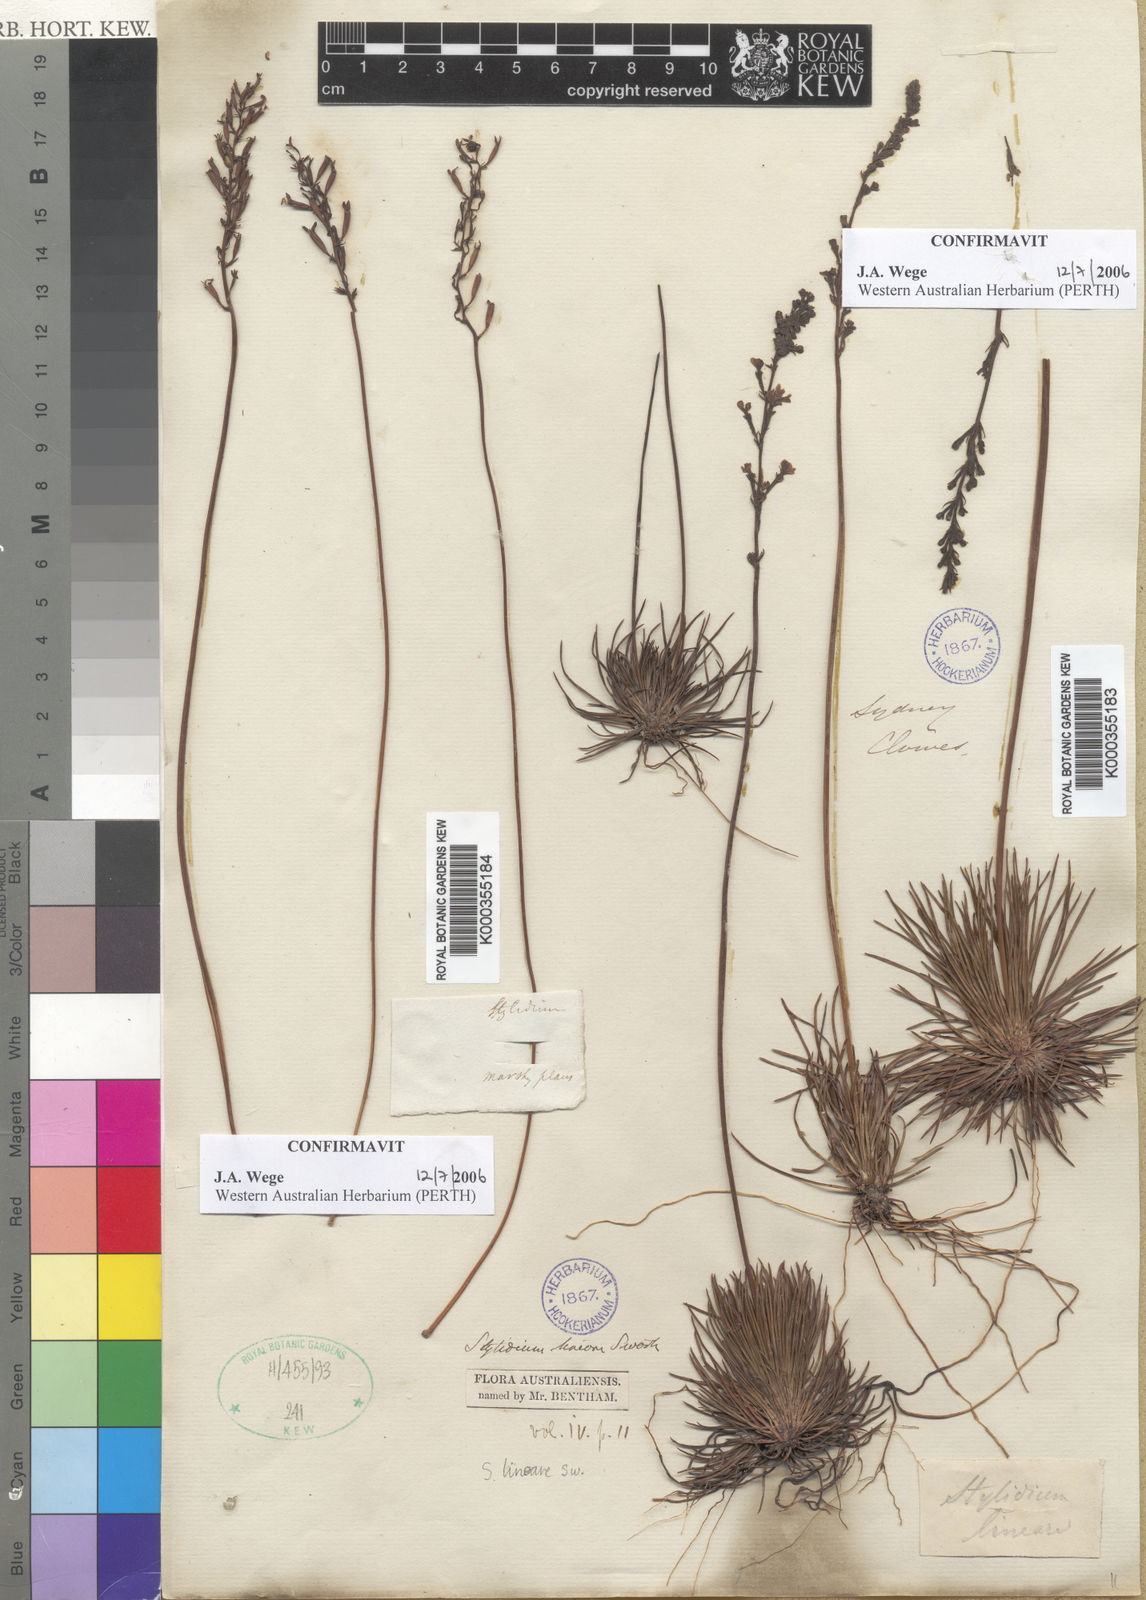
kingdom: Plantae
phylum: Tracheophyta
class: Magnoliopsida
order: Asterales
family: Stylidiaceae
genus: Stylidium
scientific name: Stylidium lineare
